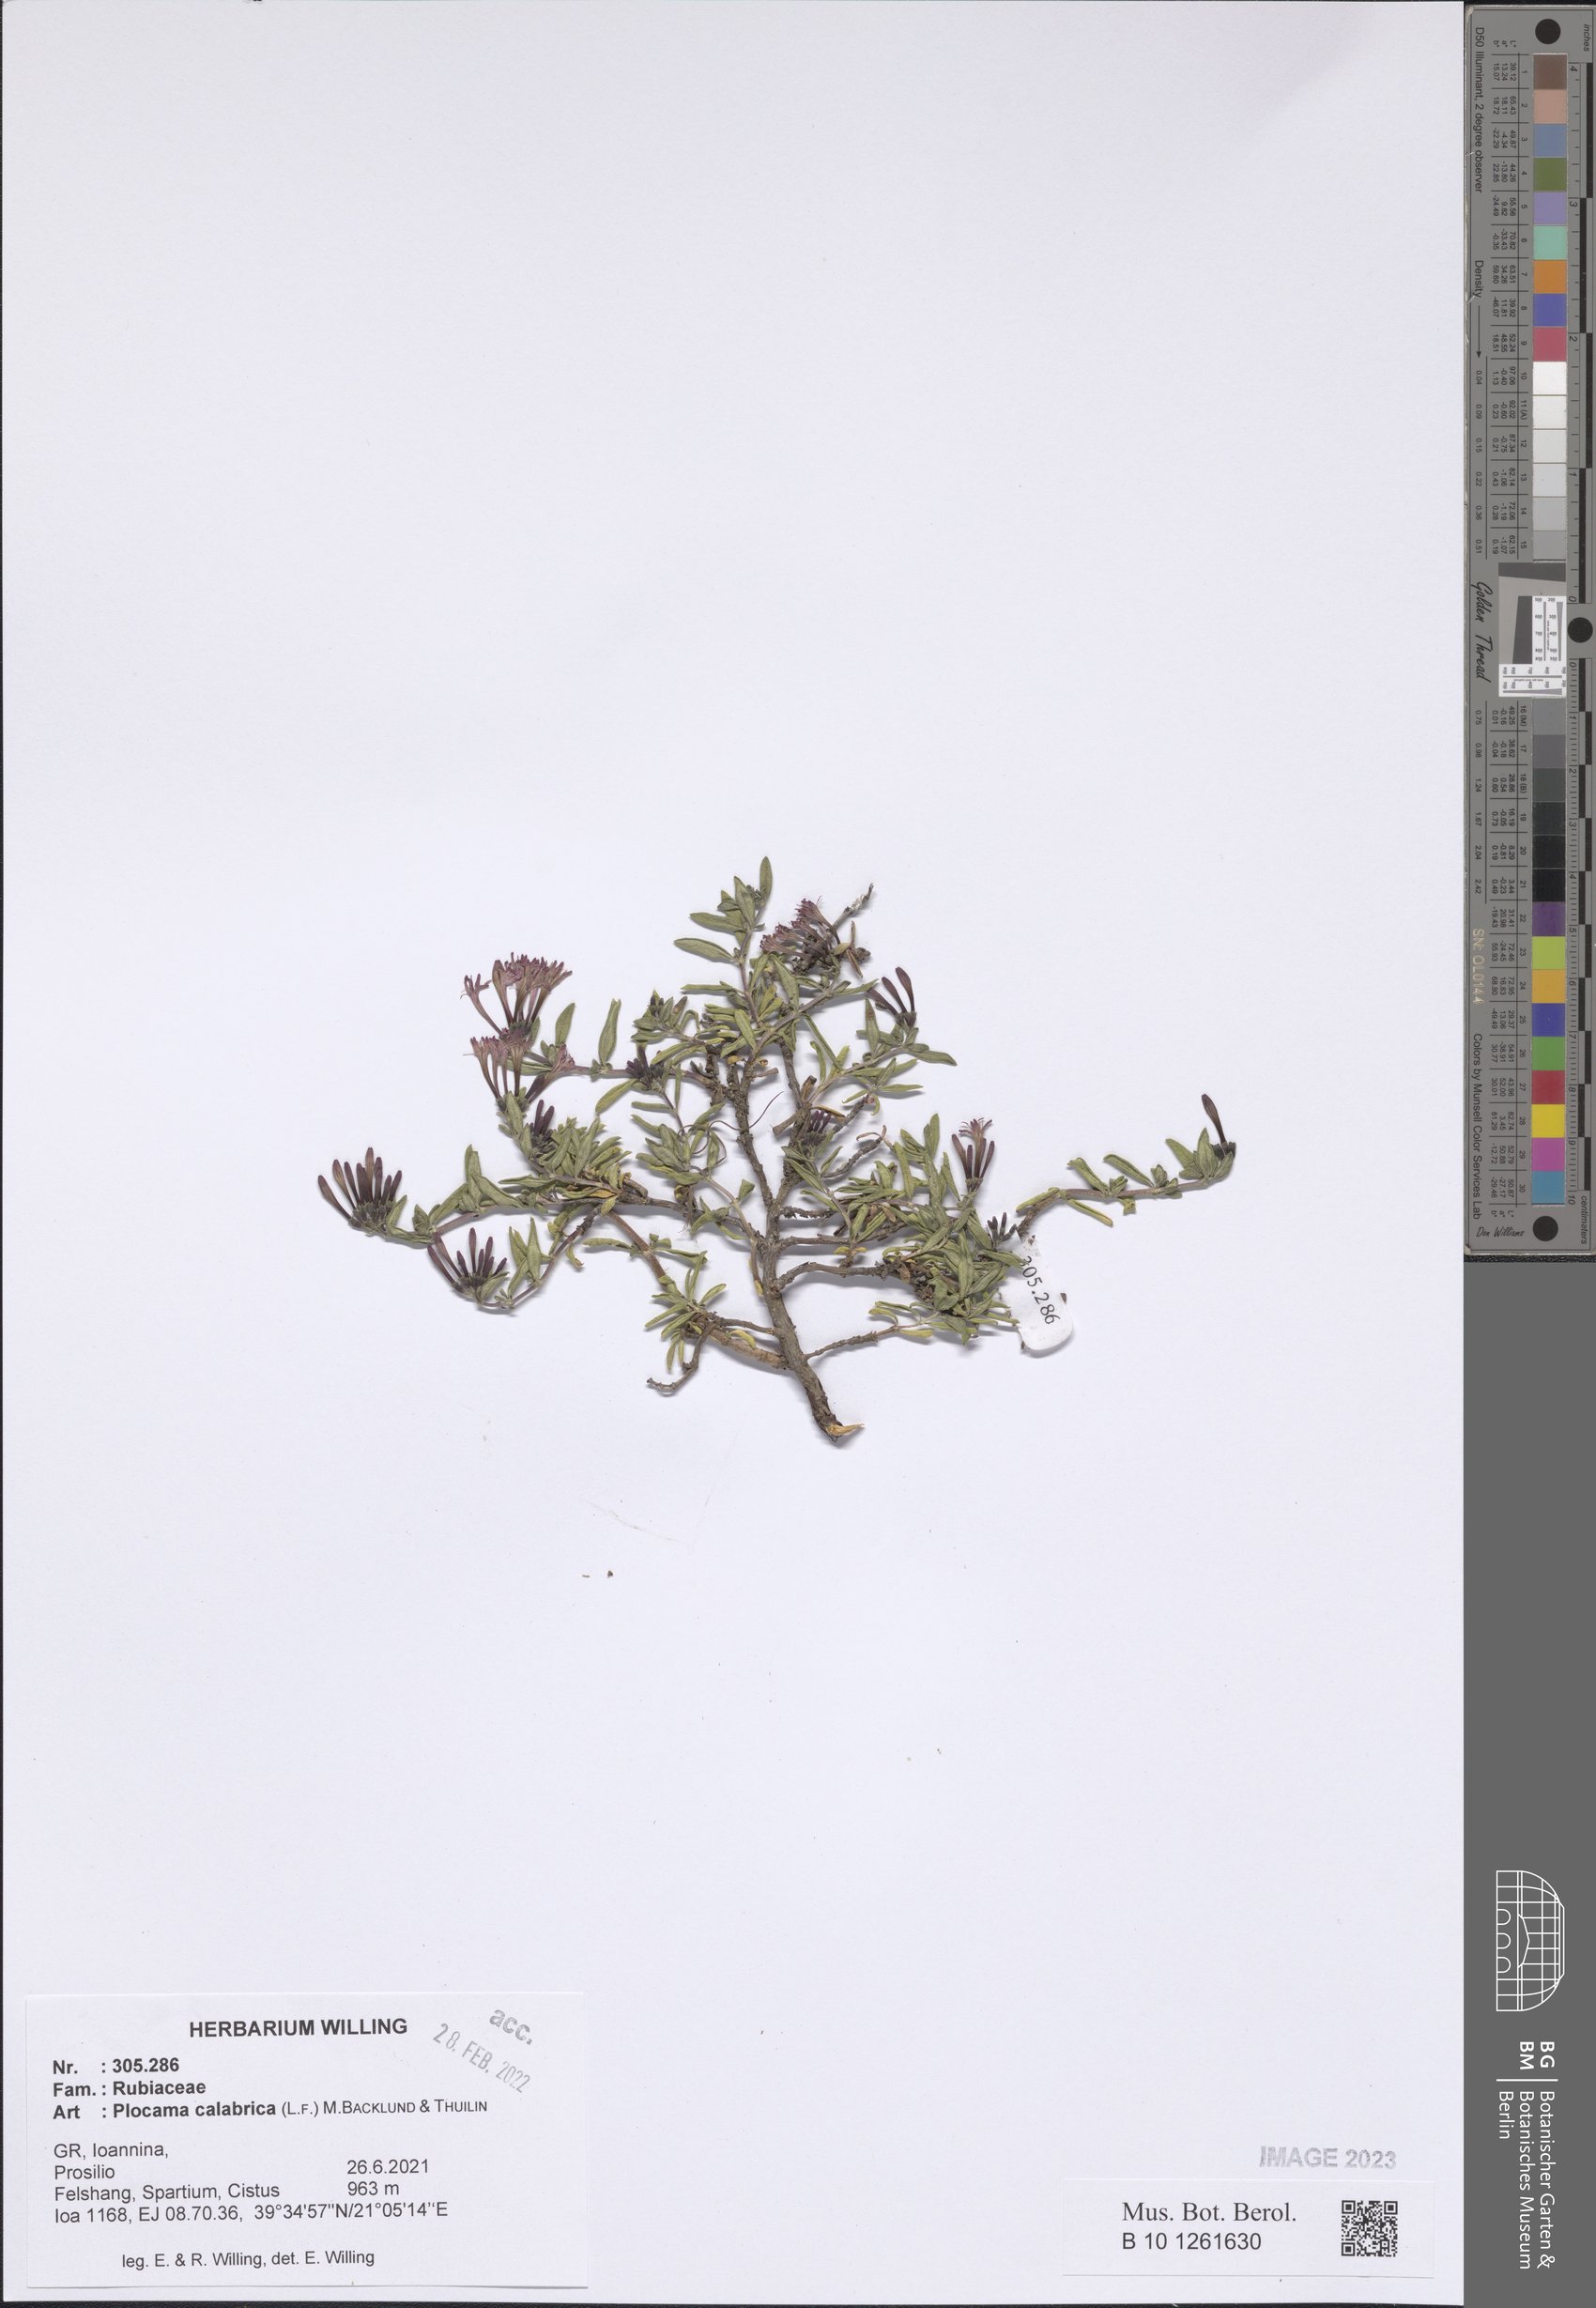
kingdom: Plantae
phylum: Tracheophyta
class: Magnoliopsida
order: Gentianales
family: Rubiaceae
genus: Plocama
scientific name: Plocama calabrica
